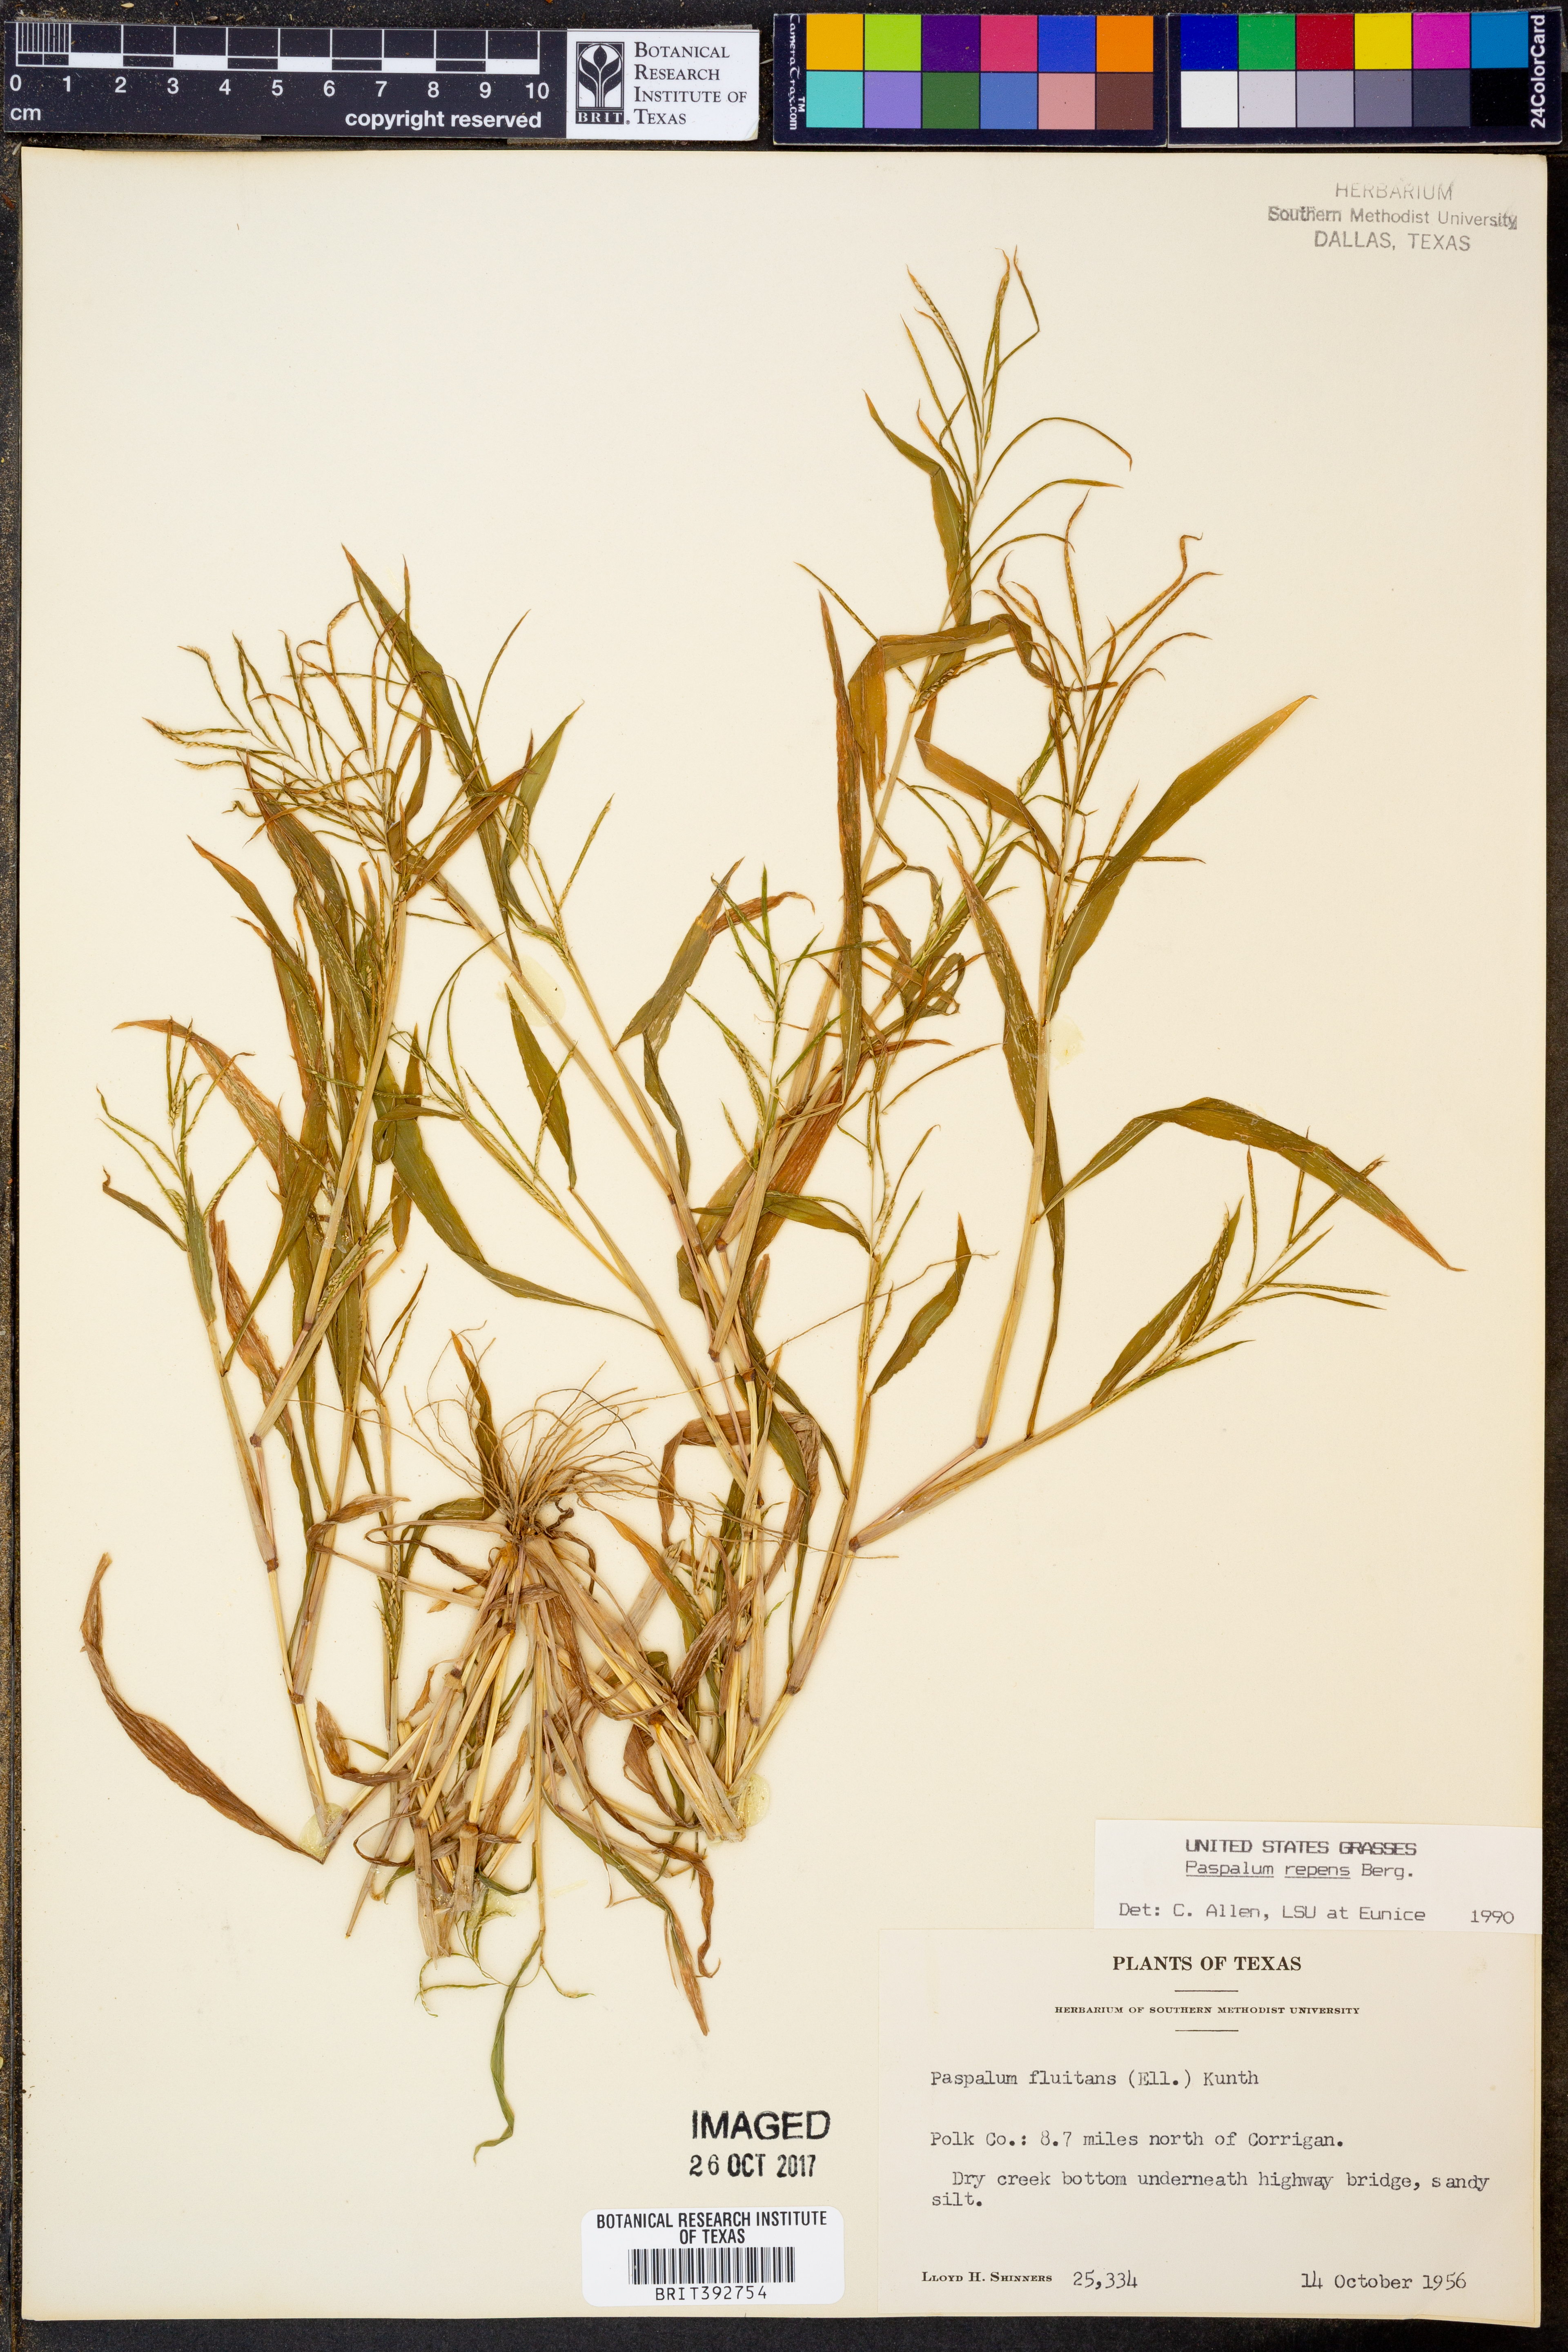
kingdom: Plantae
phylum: Tracheophyta
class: Liliopsida
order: Poales
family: Poaceae
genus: Paspalum
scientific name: Paspalum repens
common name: Water paspalum
